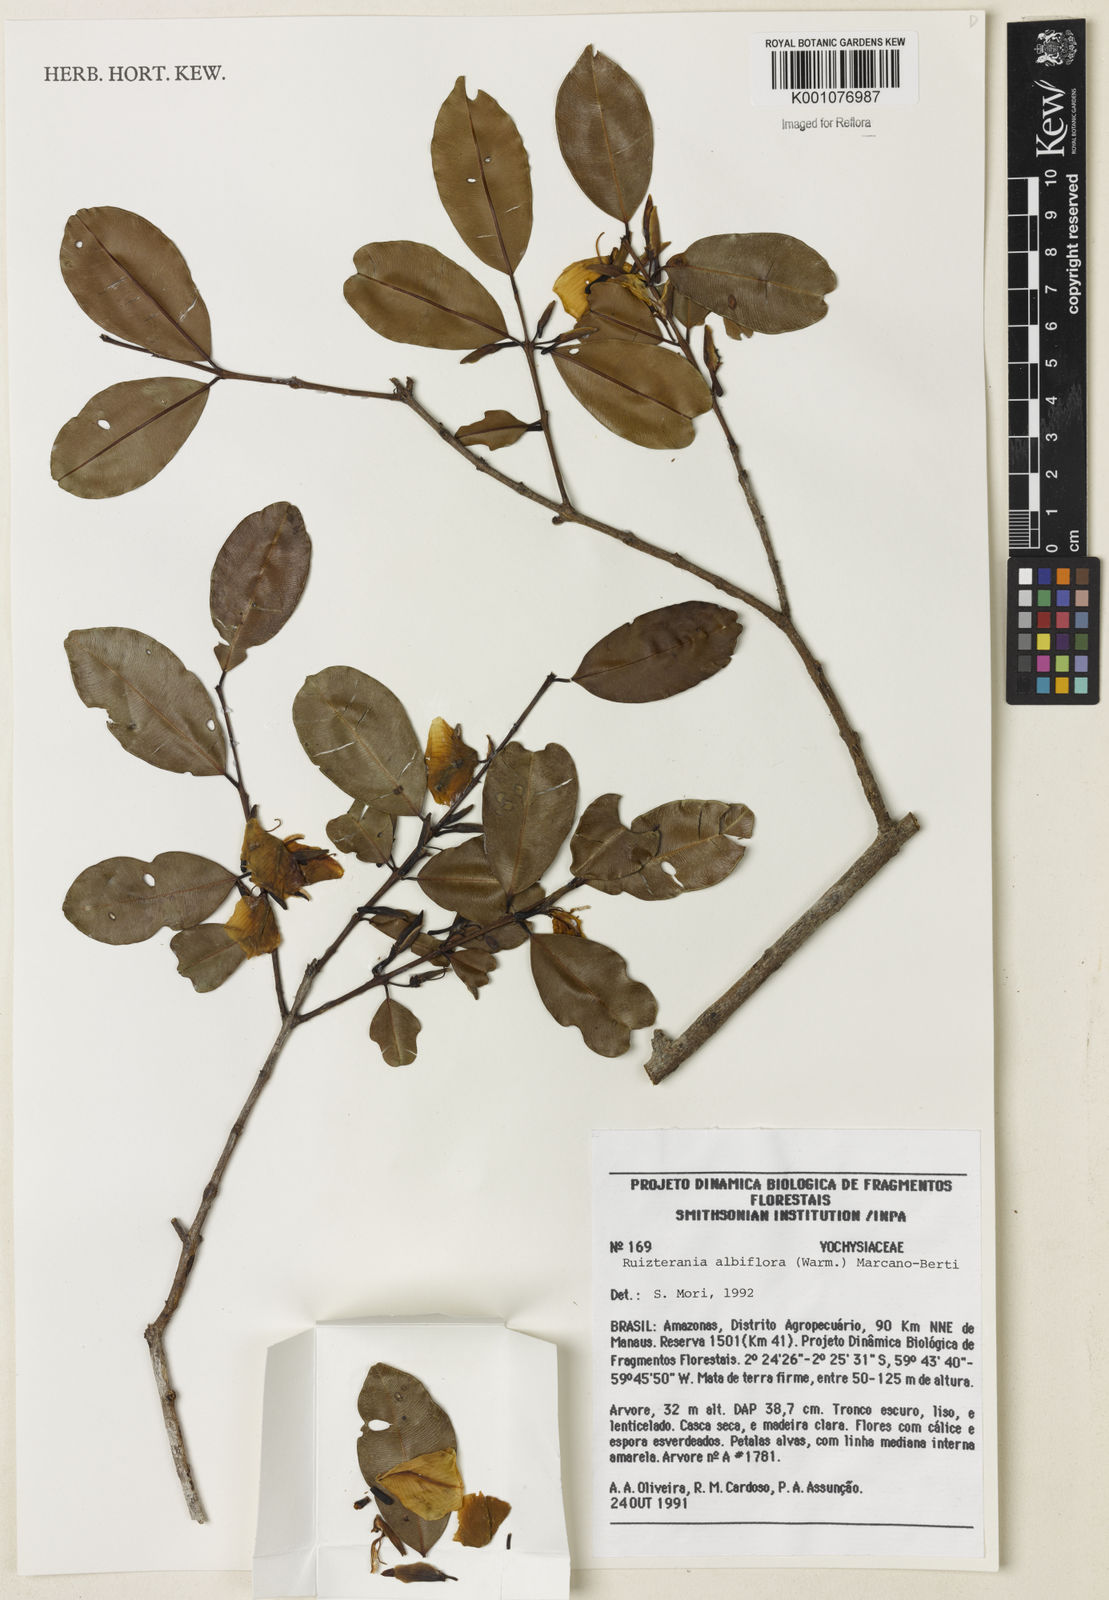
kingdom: Plantae
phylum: Tracheophyta
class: Magnoliopsida
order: Myrtales
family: Vochysiaceae
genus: Ruizterania
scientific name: Ruizterania albiflora
